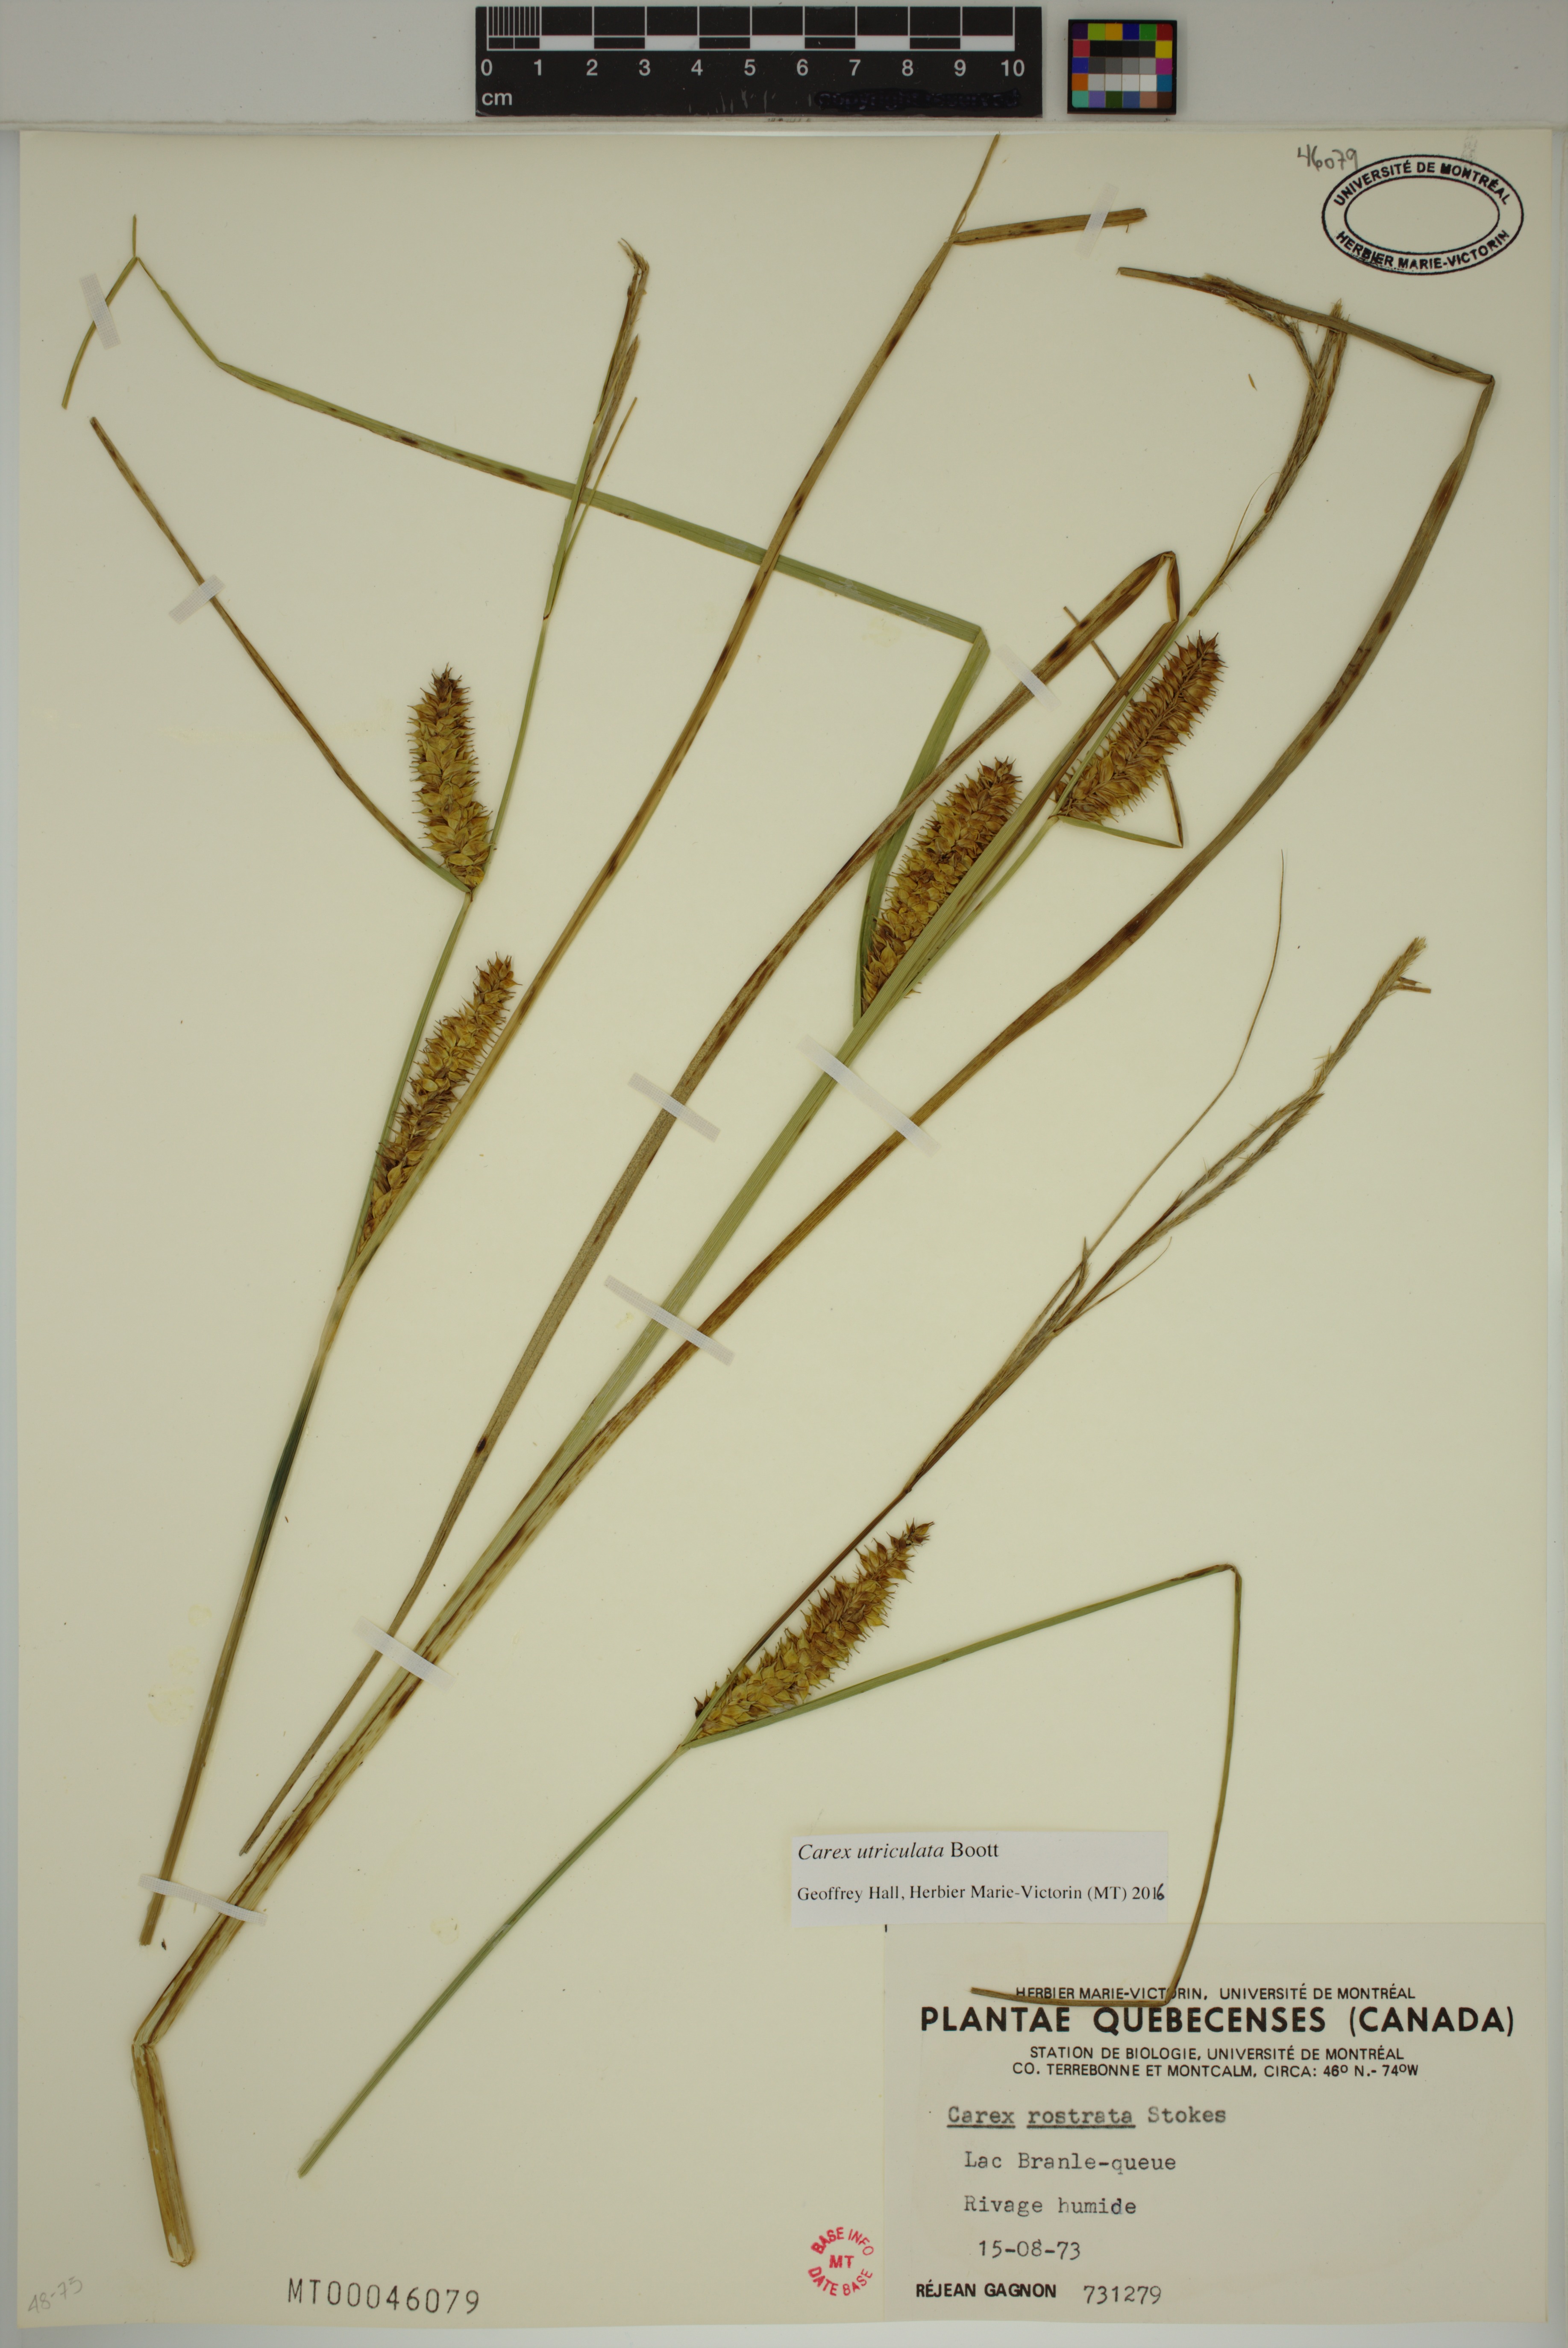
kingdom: Plantae
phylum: Tracheophyta
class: Liliopsida
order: Poales
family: Cyperaceae
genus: Carex
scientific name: Carex utriculata
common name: Beaked sedge
